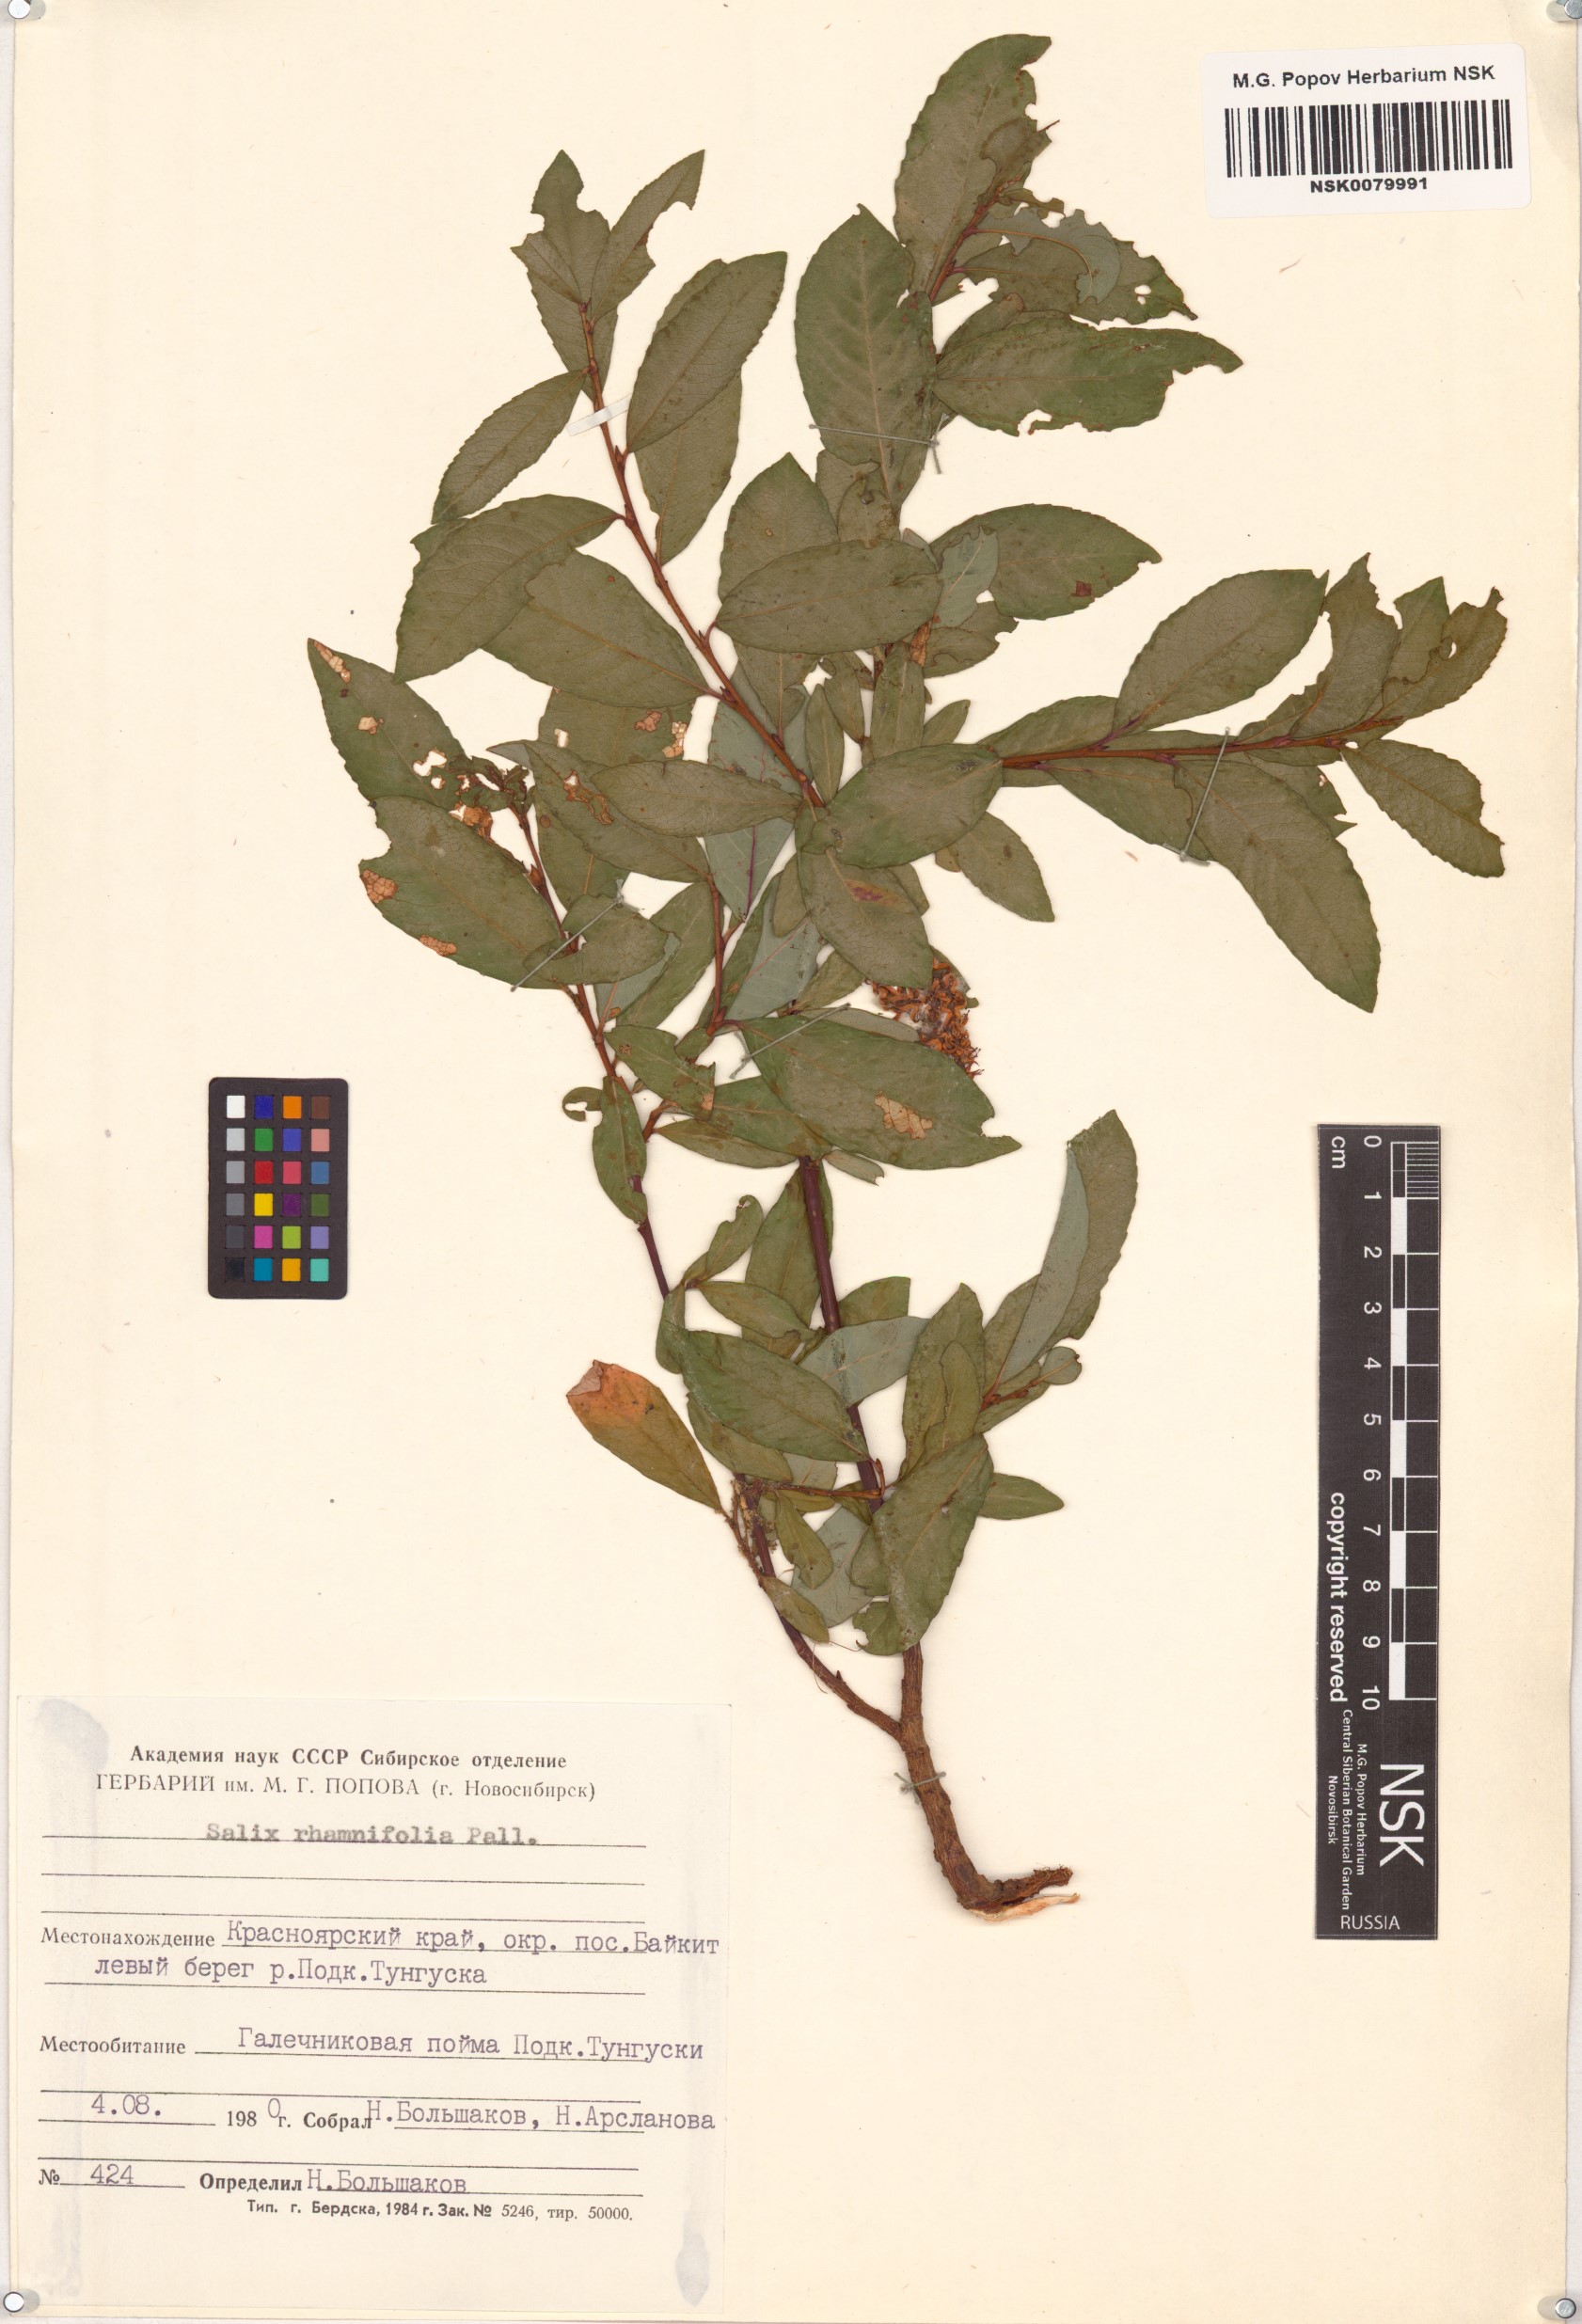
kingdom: Plantae
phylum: Tracheophyta
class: Magnoliopsida
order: Malpighiales
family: Salicaceae
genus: Salix
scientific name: Salix rhamnifolia
